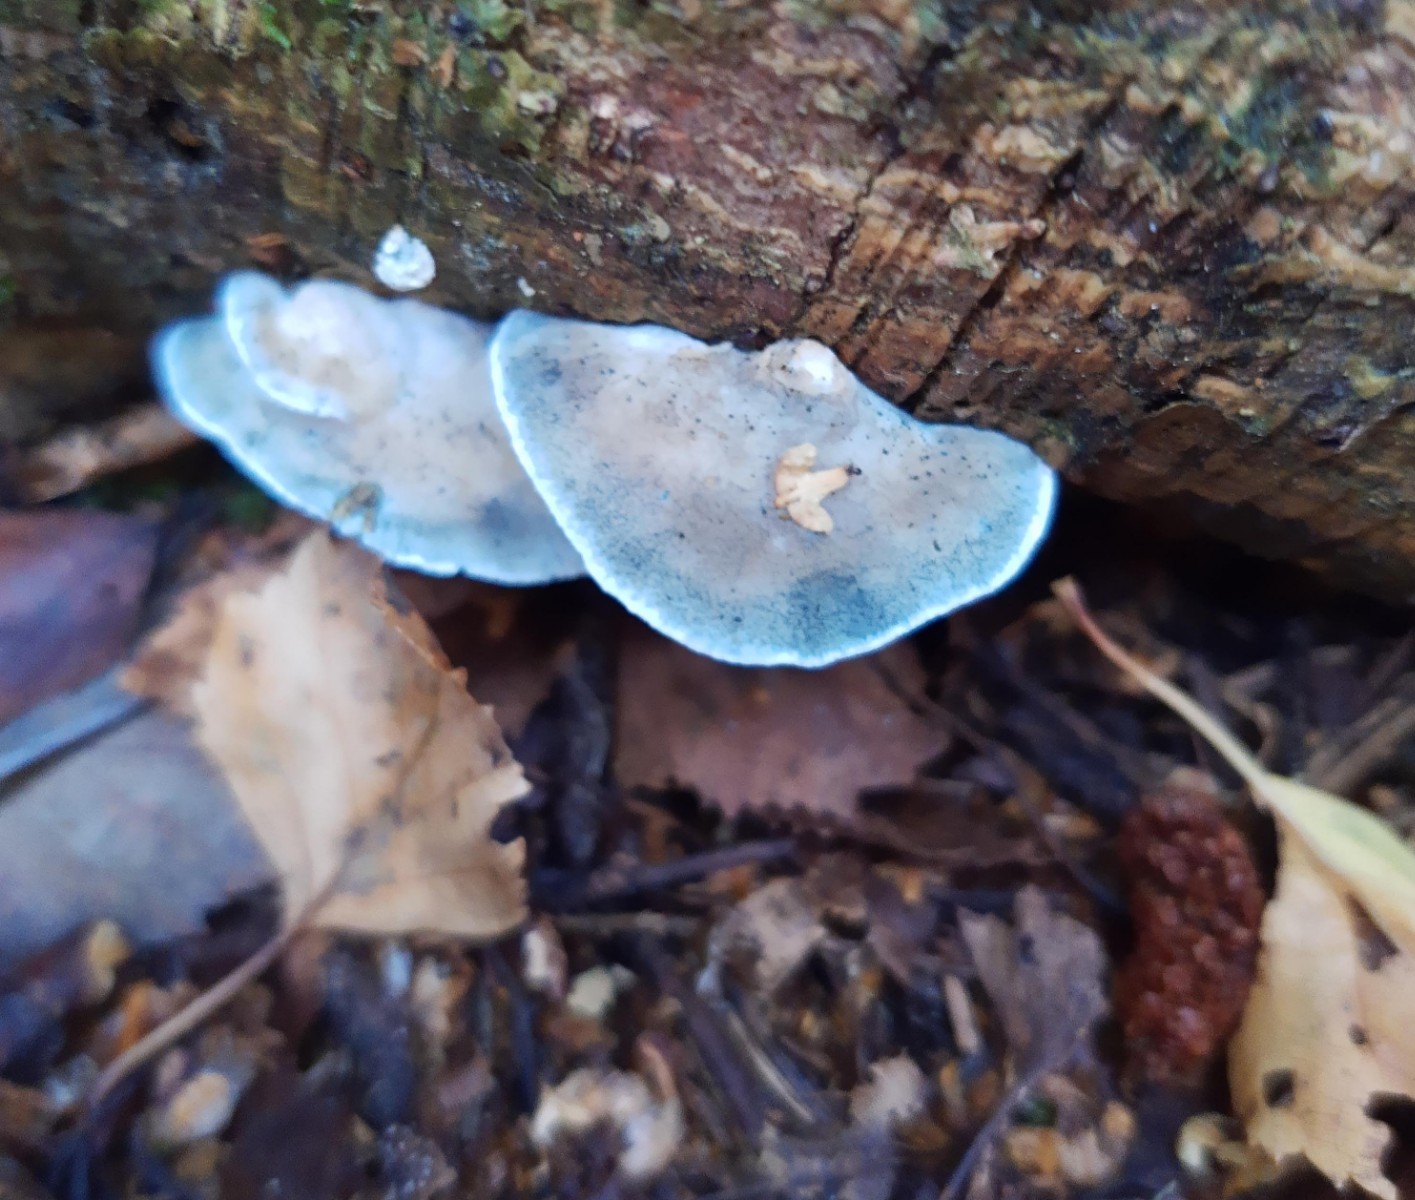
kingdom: Fungi
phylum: Basidiomycota
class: Agaricomycetes
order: Polyporales
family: Polyporaceae
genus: Cyanosporus
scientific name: Cyanosporus caesius
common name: blålig kødporesvamp
